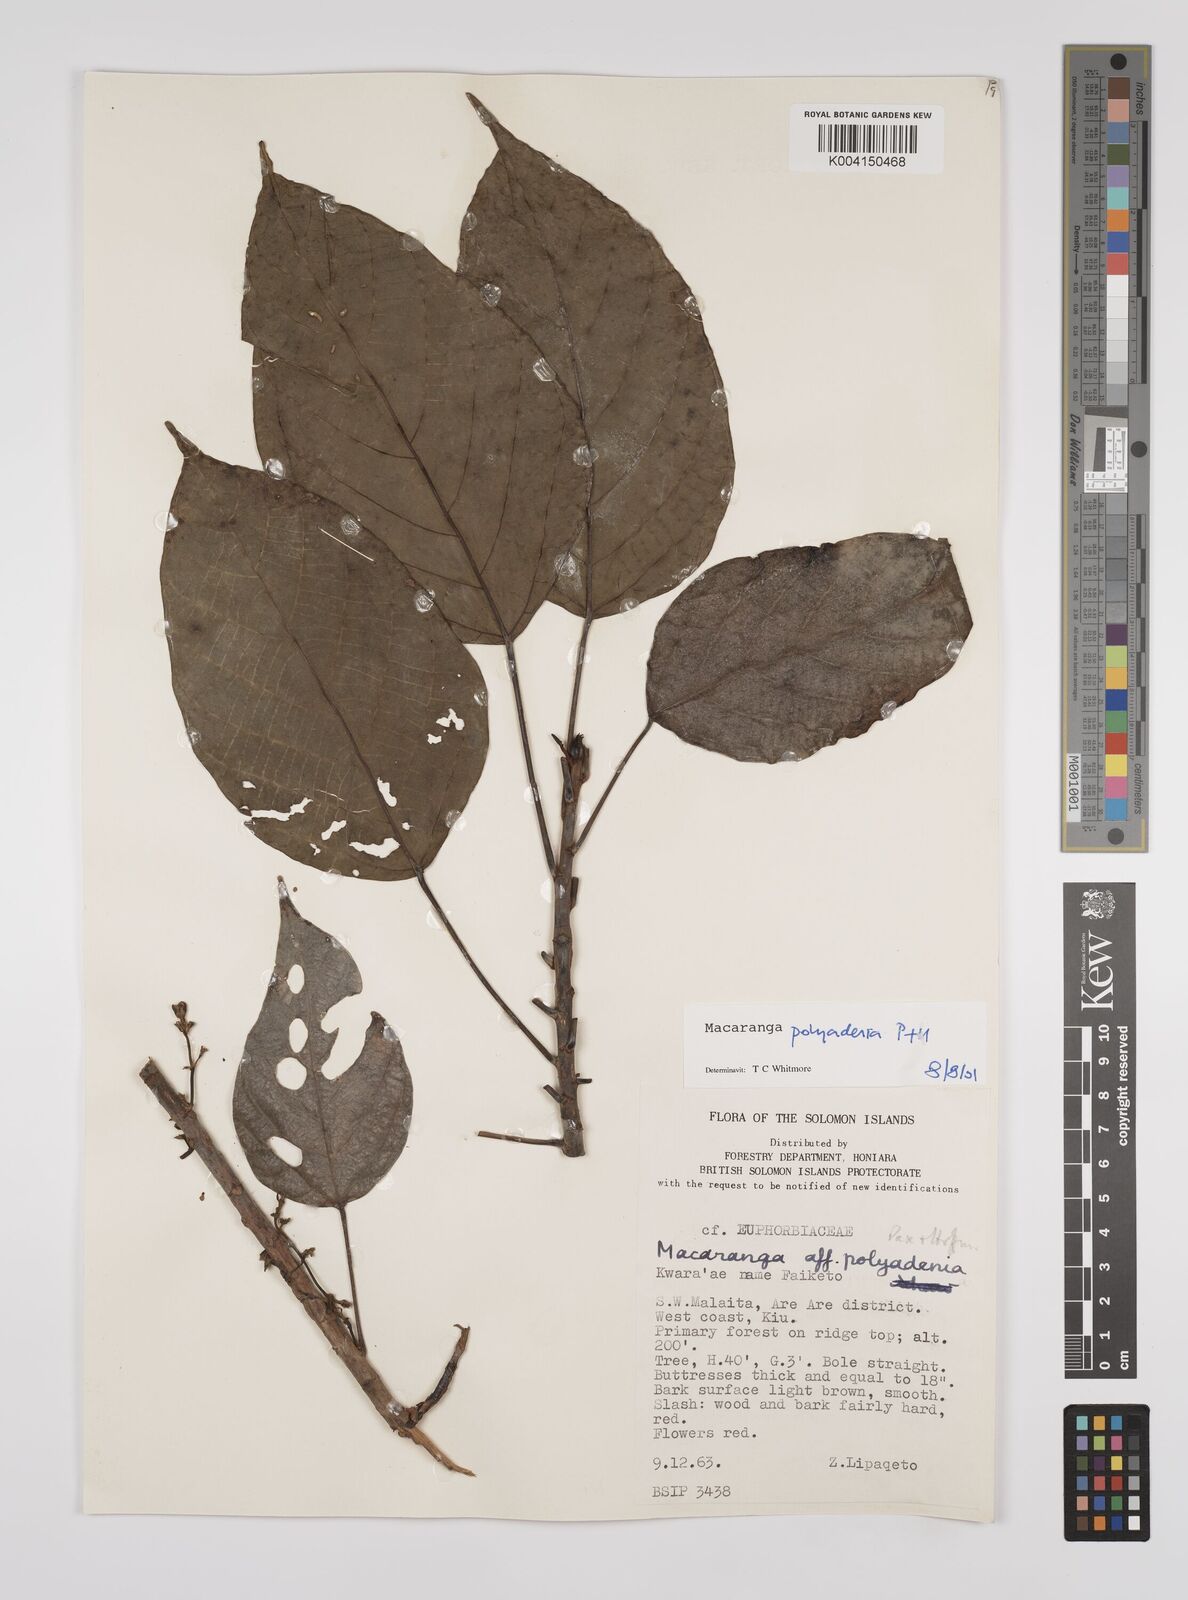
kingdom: Plantae
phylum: Tracheophyta
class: Magnoliopsida
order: Malpighiales
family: Euphorbiaceae
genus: Macaranga
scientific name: Macaranga polyadenia
